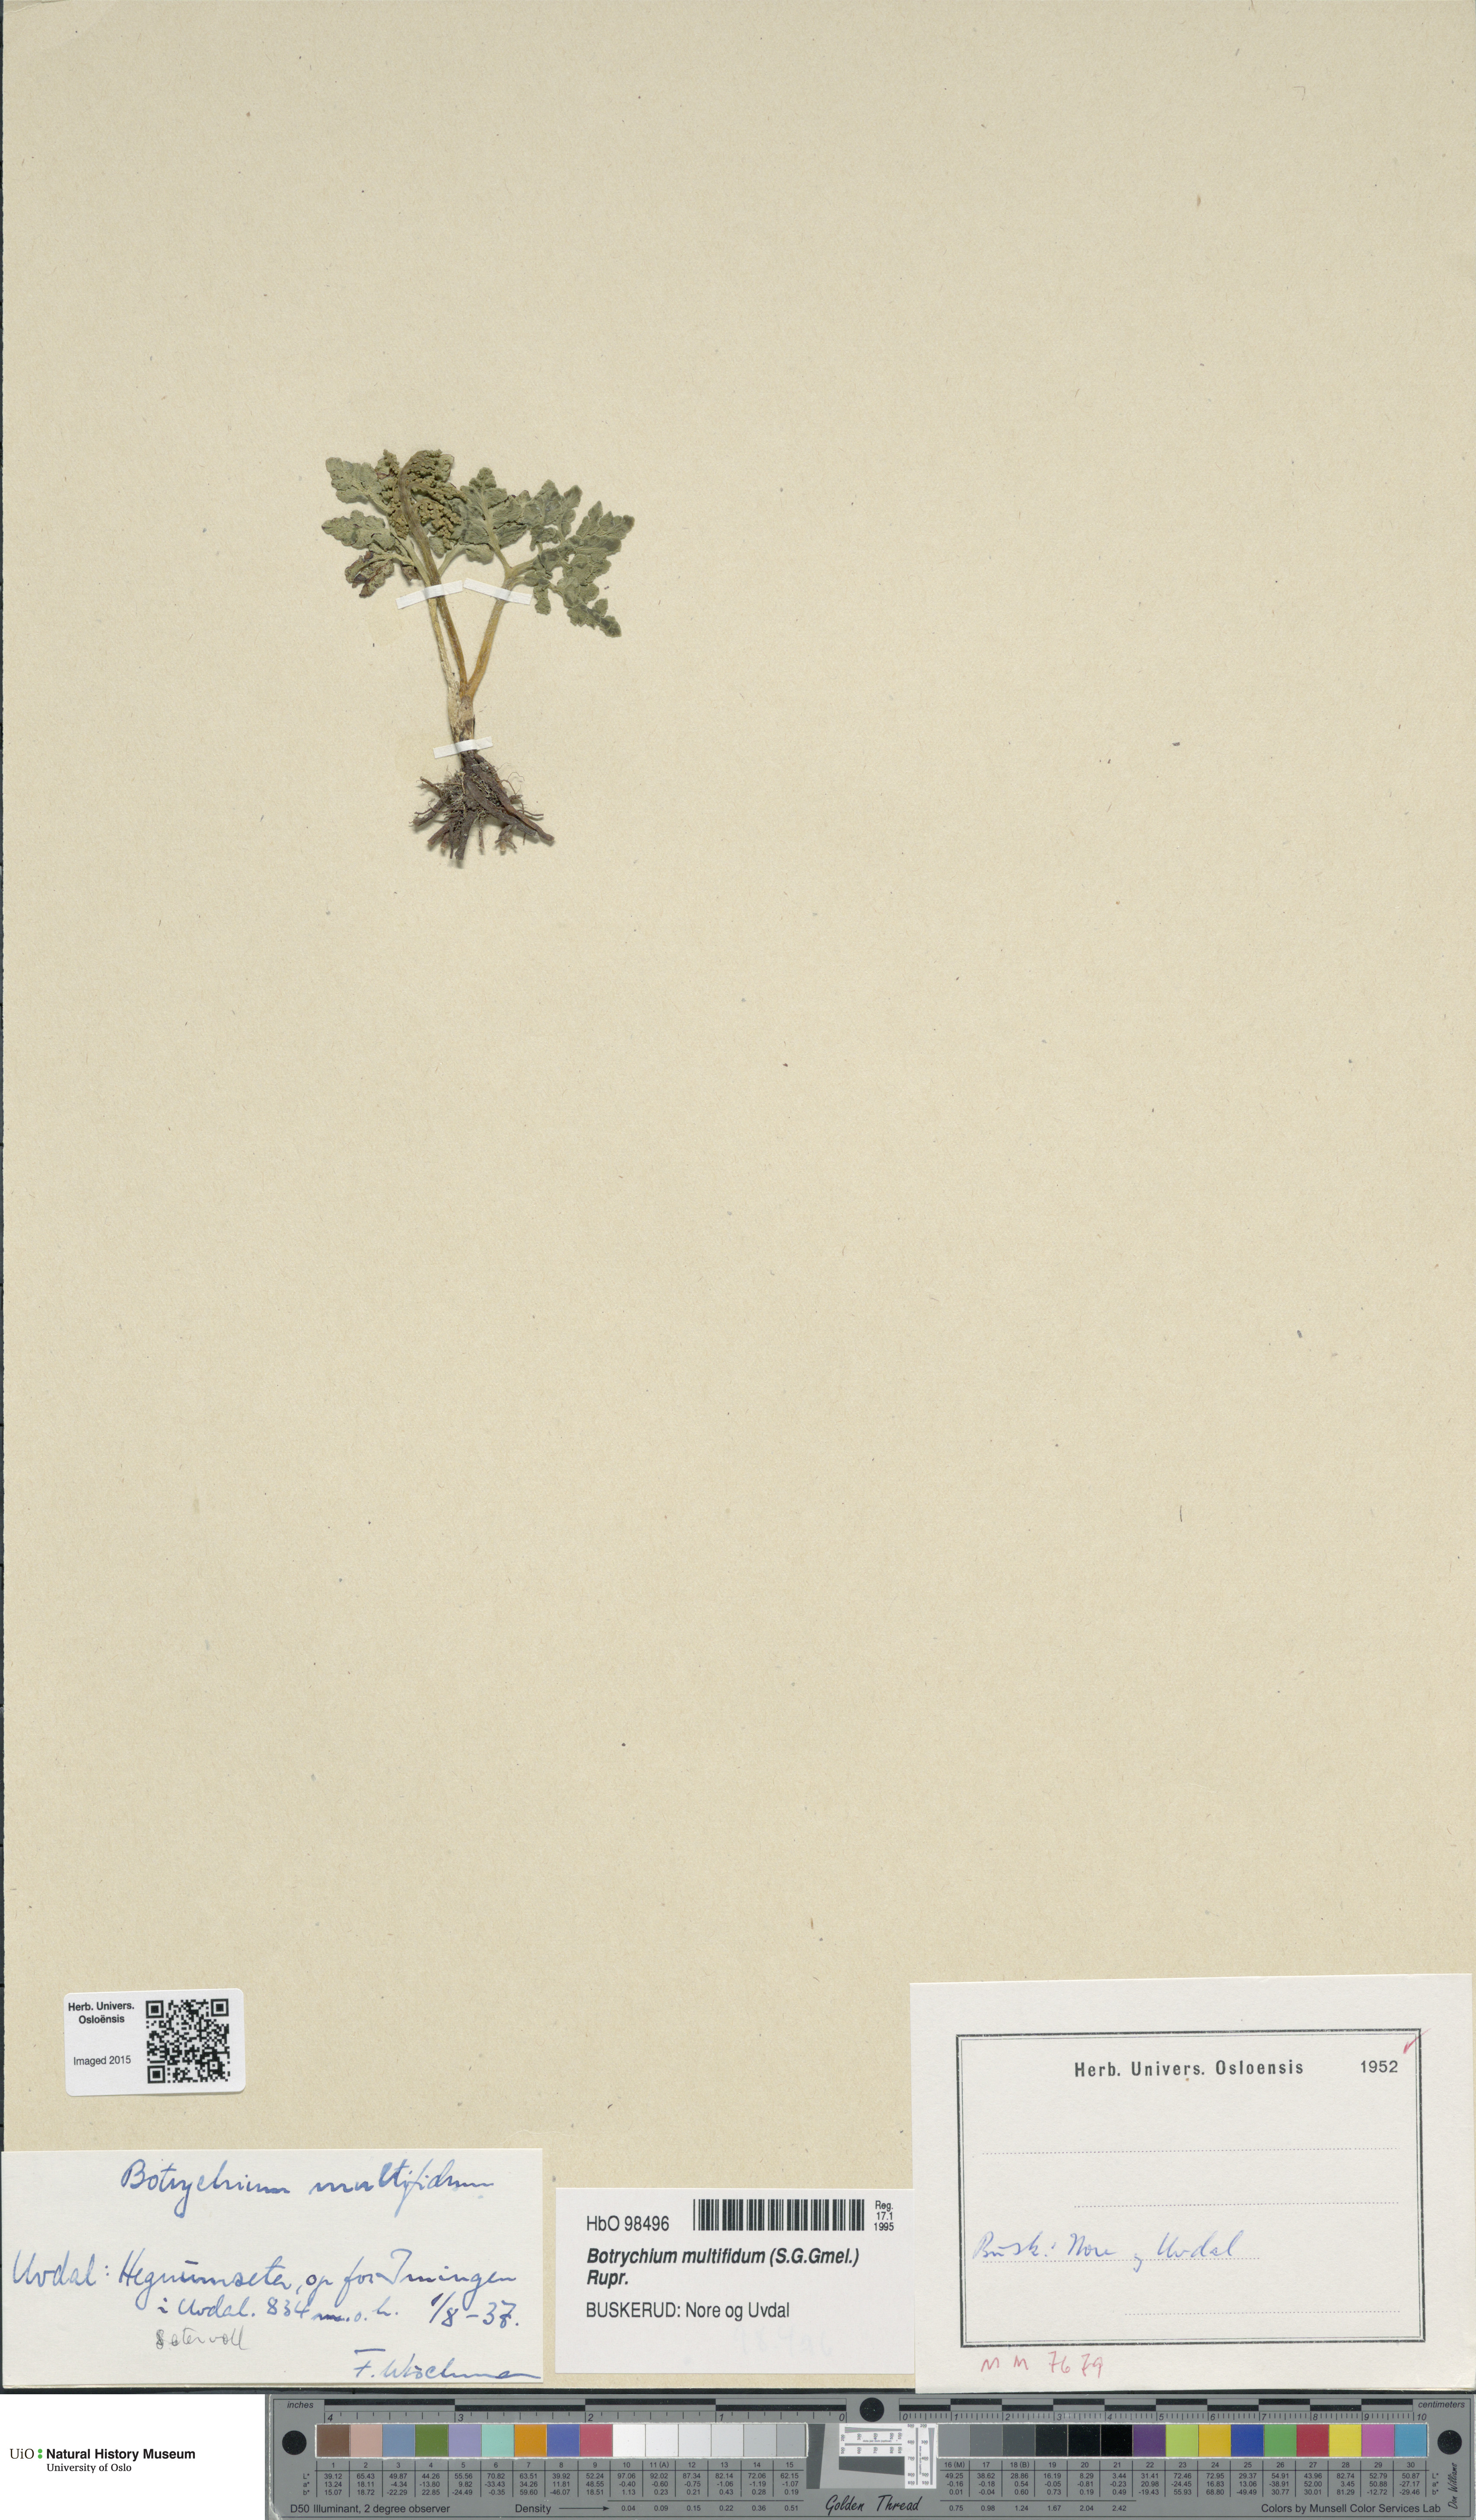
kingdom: Plantae
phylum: Tracheophyta
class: Polypodiopsida
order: Ophioglossales
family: Ophioglossaceae
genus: Sceptridium
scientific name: Sceptridium multifidum
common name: Leathery grape fern
